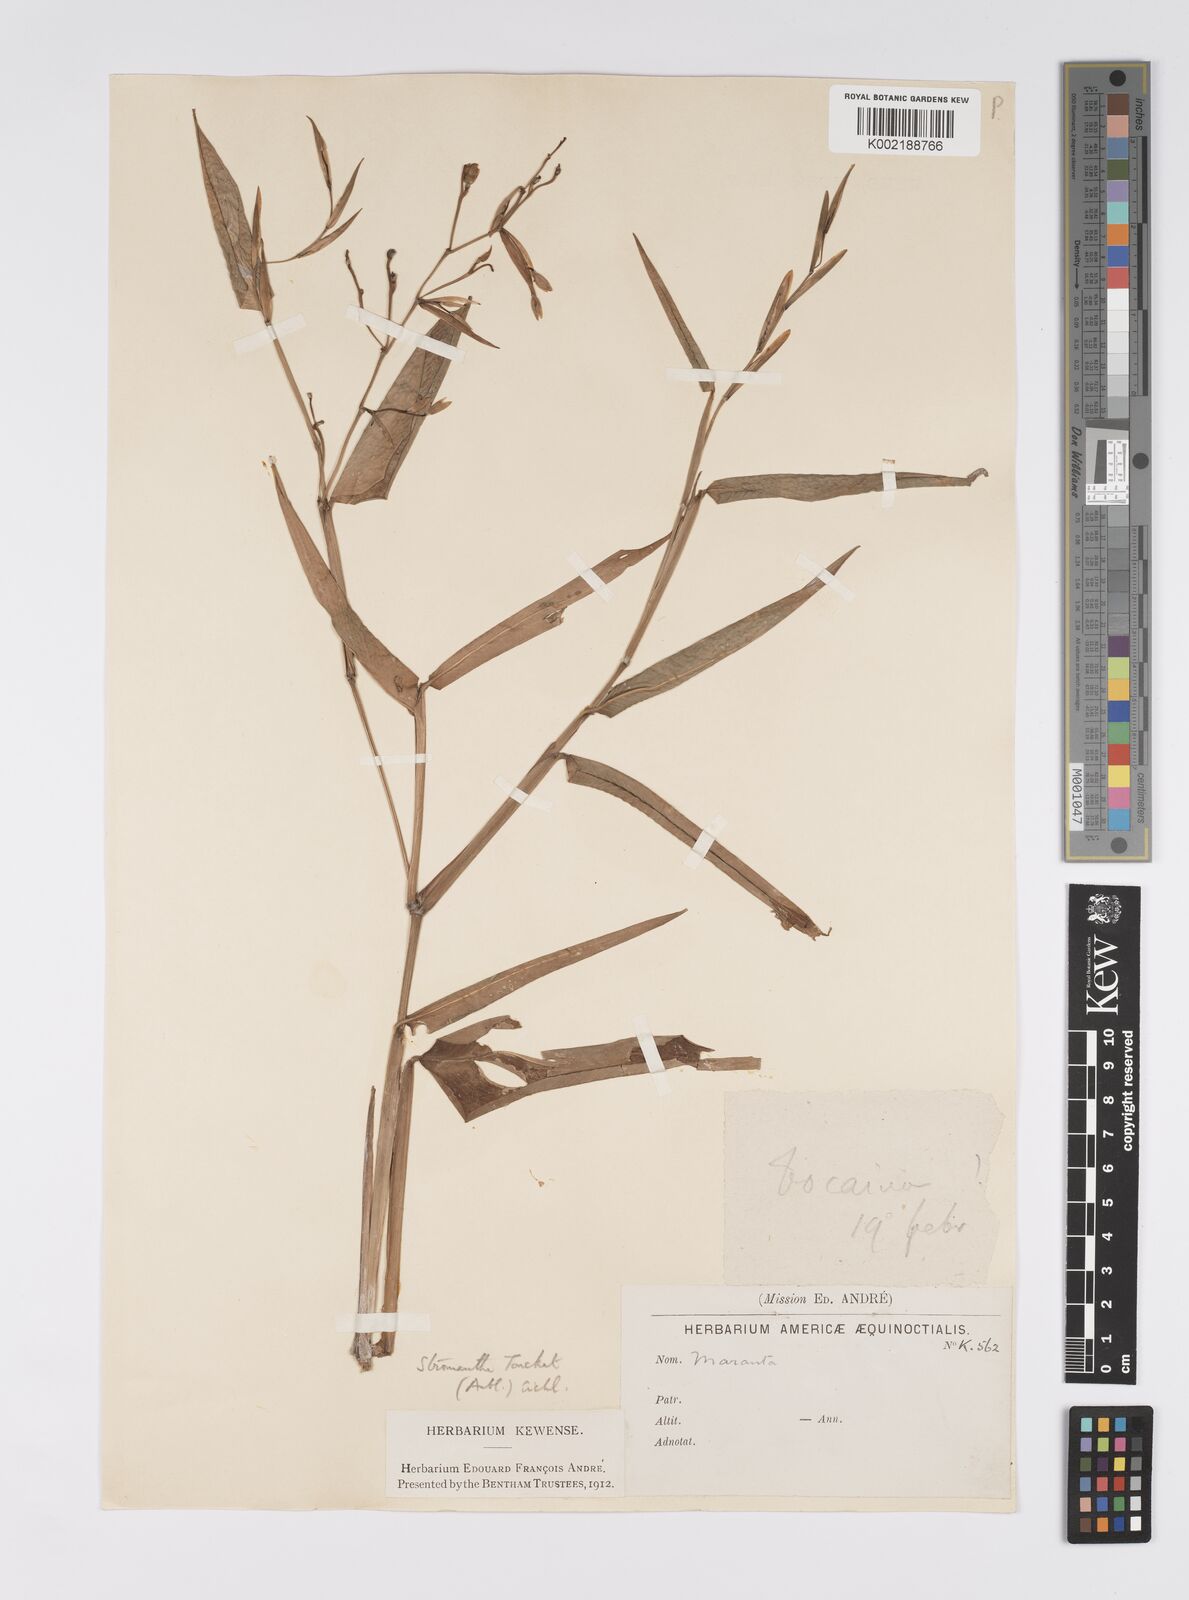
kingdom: Plantae
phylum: Tracheophyta
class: Liliopsida
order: Zingiberales
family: Marantaceae
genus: Stromanthe
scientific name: Stromanthe tonckat
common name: Stromanthe
